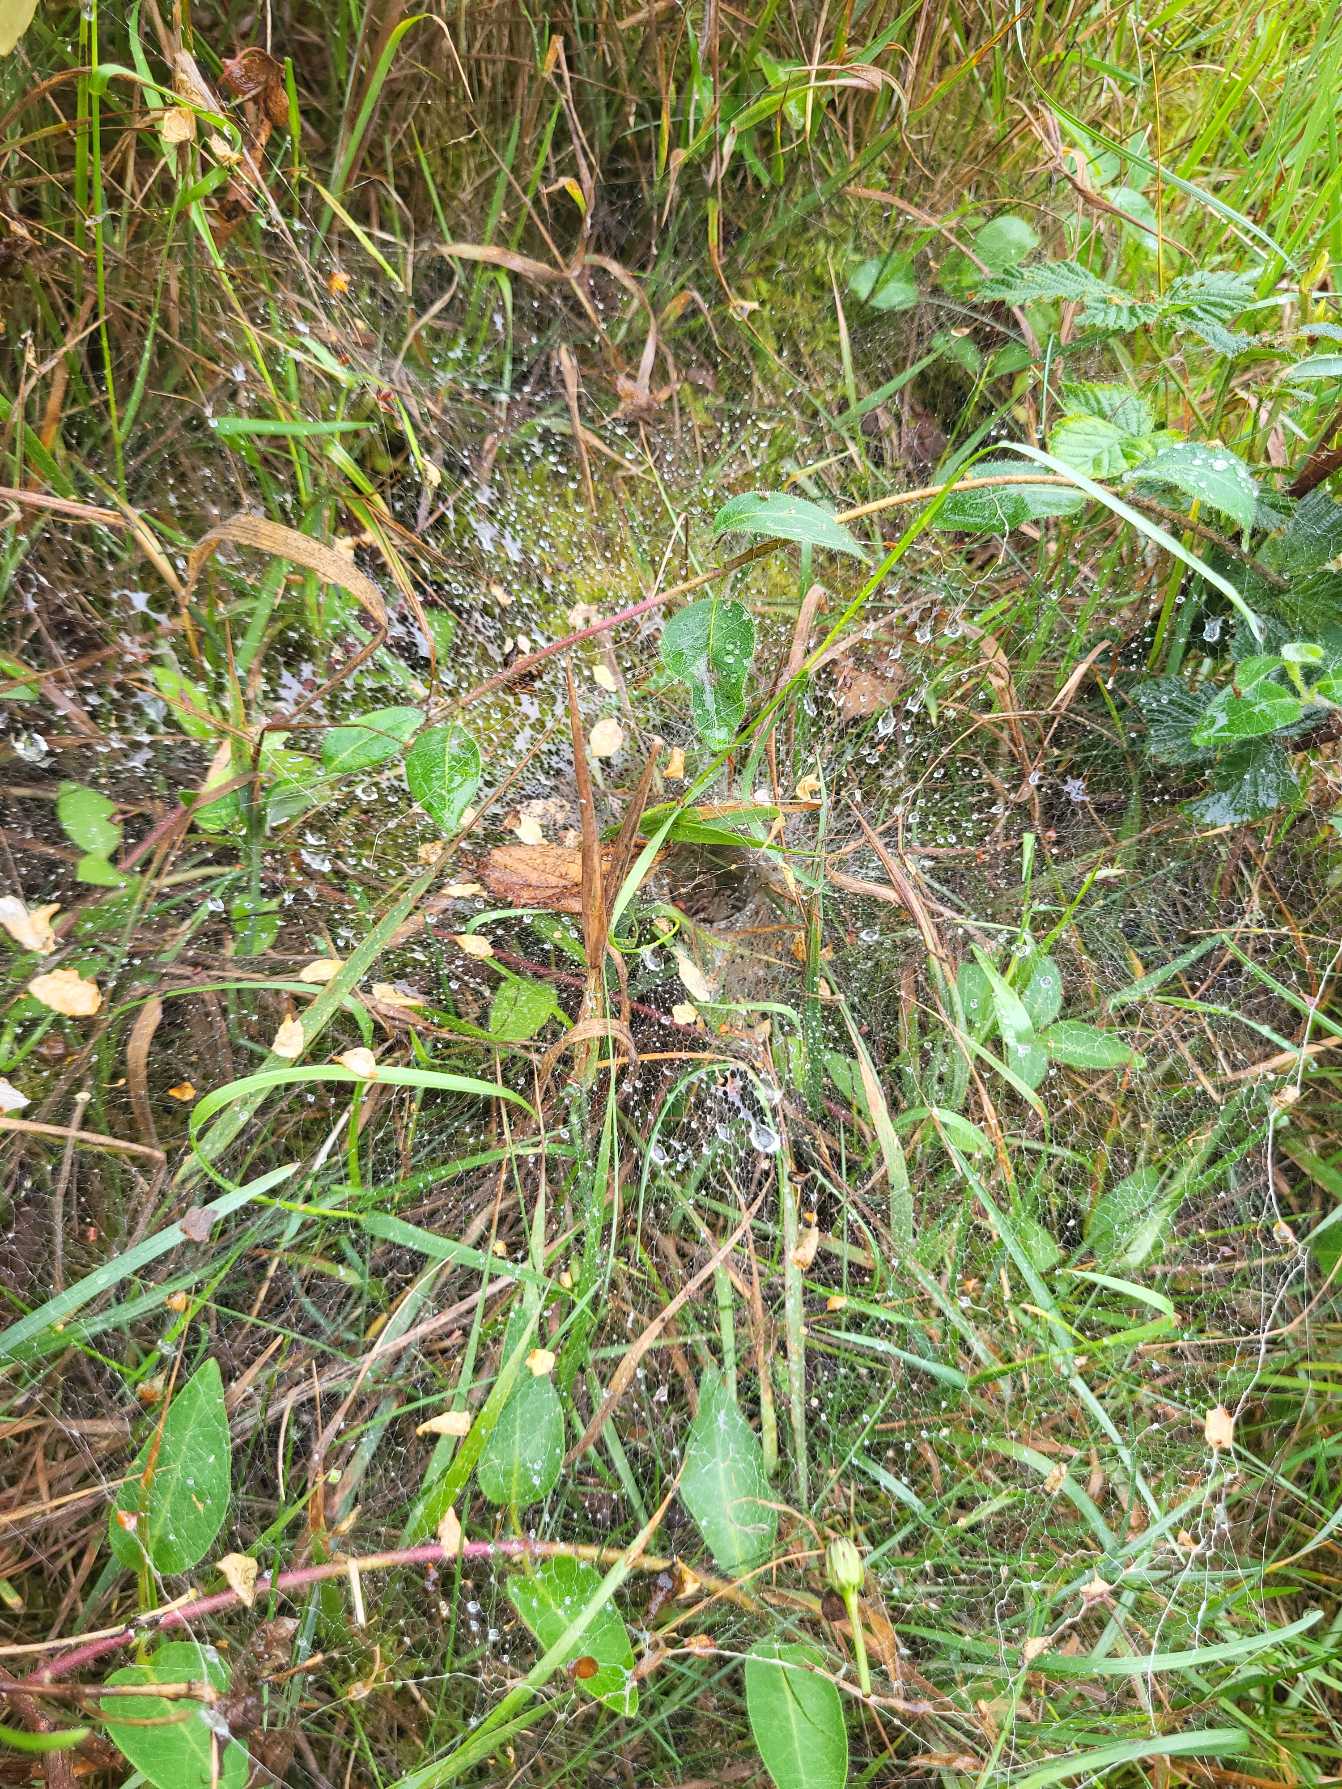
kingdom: Animalia
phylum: Arthropoda
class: Arachnida
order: Araneae
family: Agelenidae
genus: Agelena
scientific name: Agelena labyrinthica
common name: Labyrintedderkop
